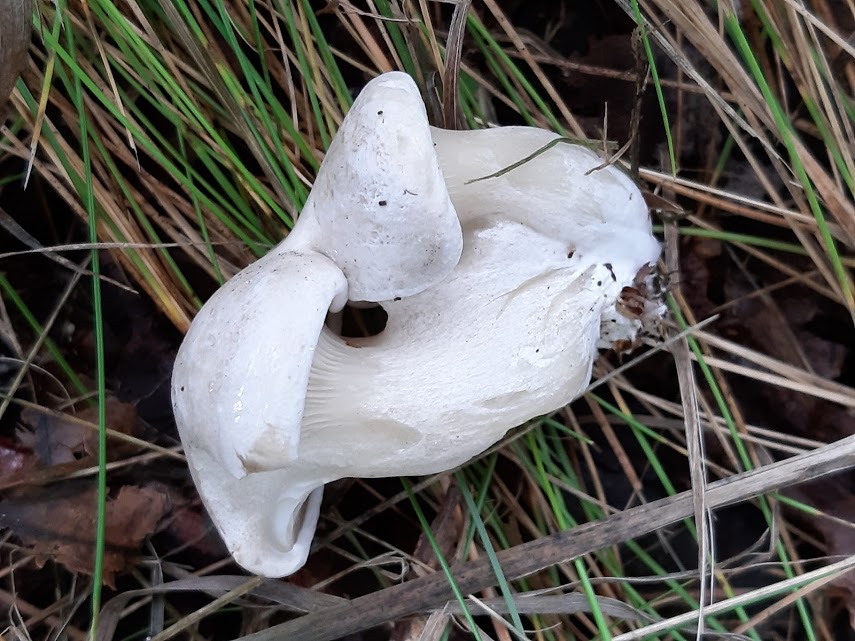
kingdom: Fungi
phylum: Basidiomycota
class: Agaricomycetes
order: Agaricales
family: Entolomataceae
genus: Clitopilus
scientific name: Clitopilus prunulus
